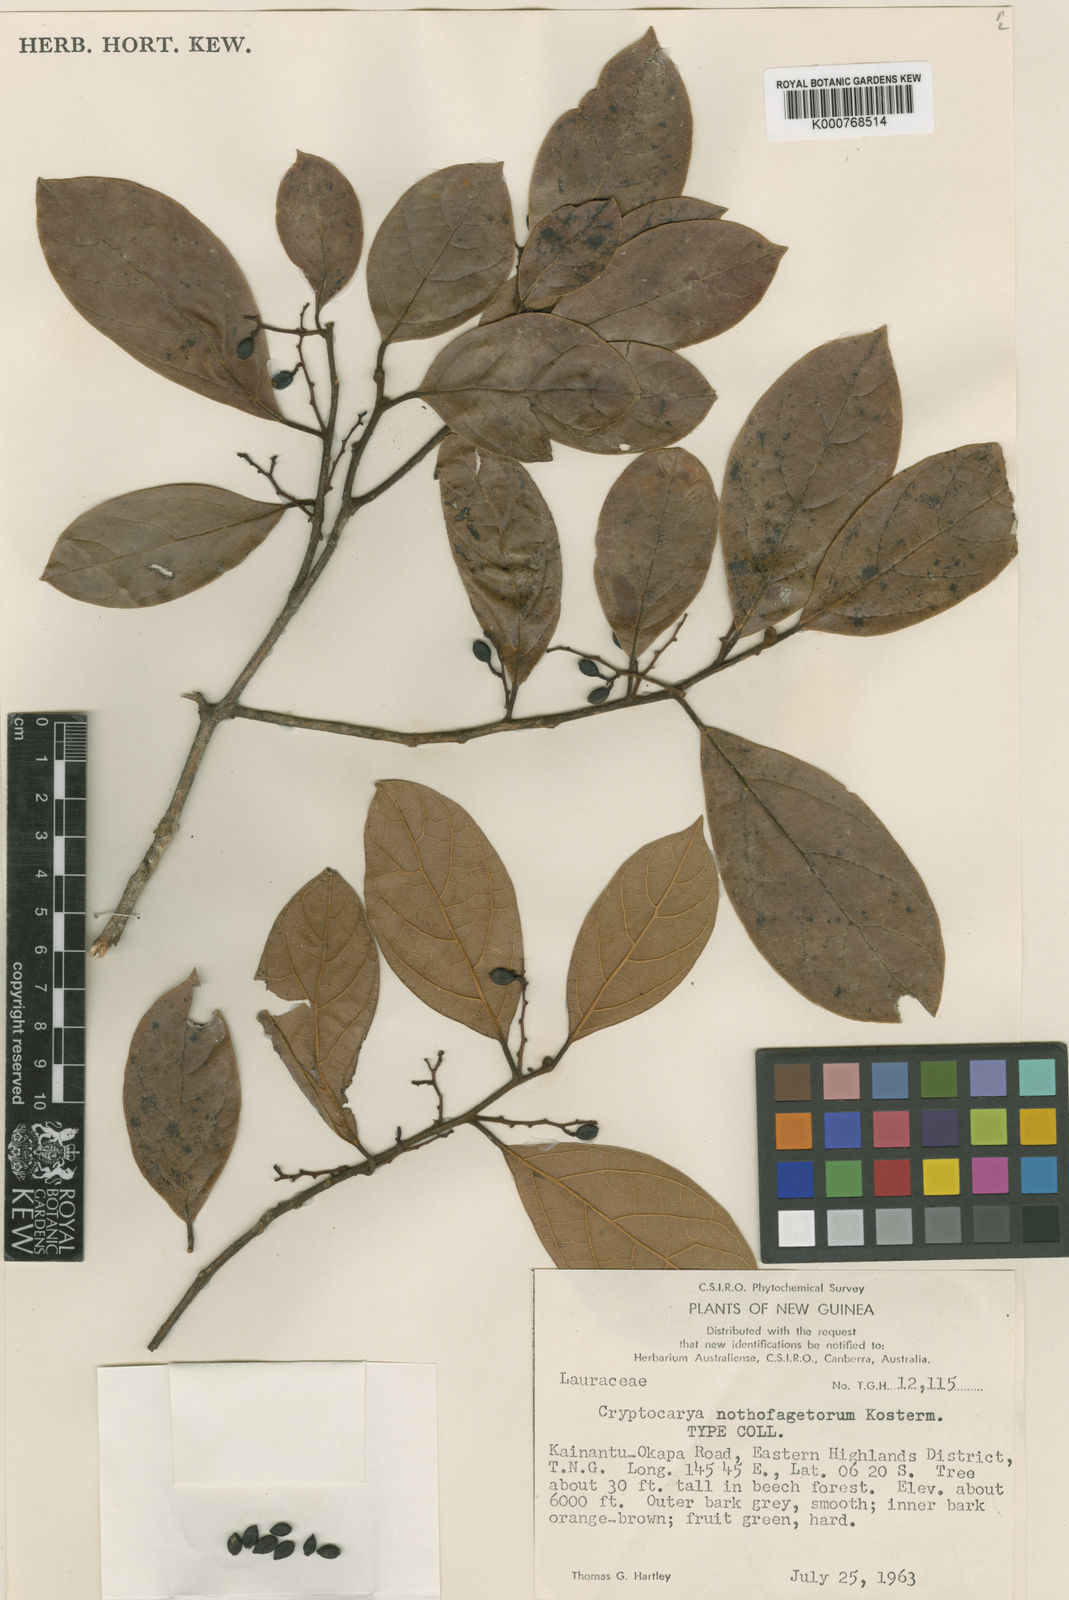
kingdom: Plantae
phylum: Tracheophyta
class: Magnoliopsida
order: Laurales
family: Lauraceae
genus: Cryptocarya
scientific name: Cryptocarya nothofagetorum
